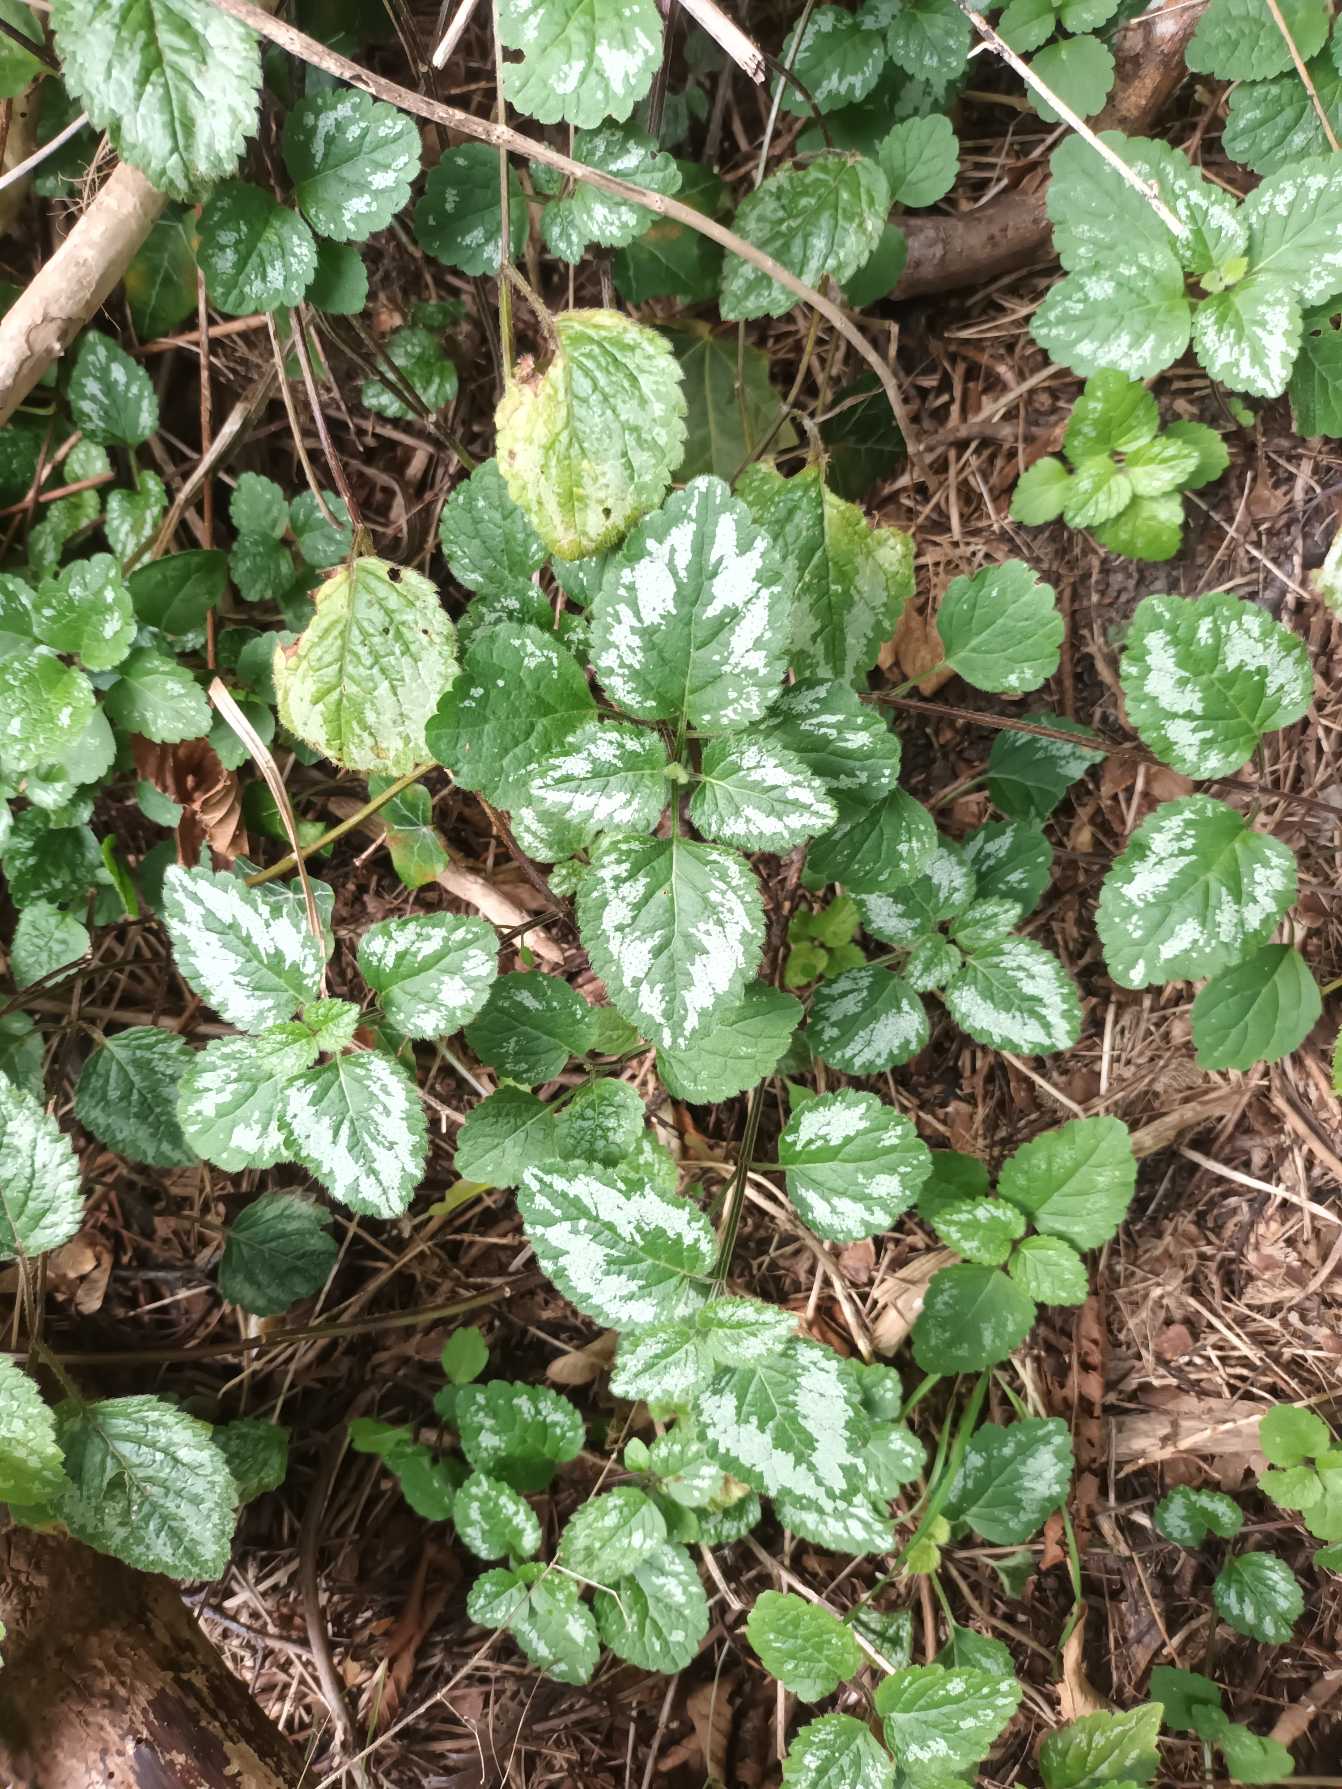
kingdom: Plantae
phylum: Tracheophyta
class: Magnoliopsida
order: Lamiales
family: Lamiaceae
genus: Lamium
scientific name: Lamium galeobdolon
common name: Have-guldnælde
